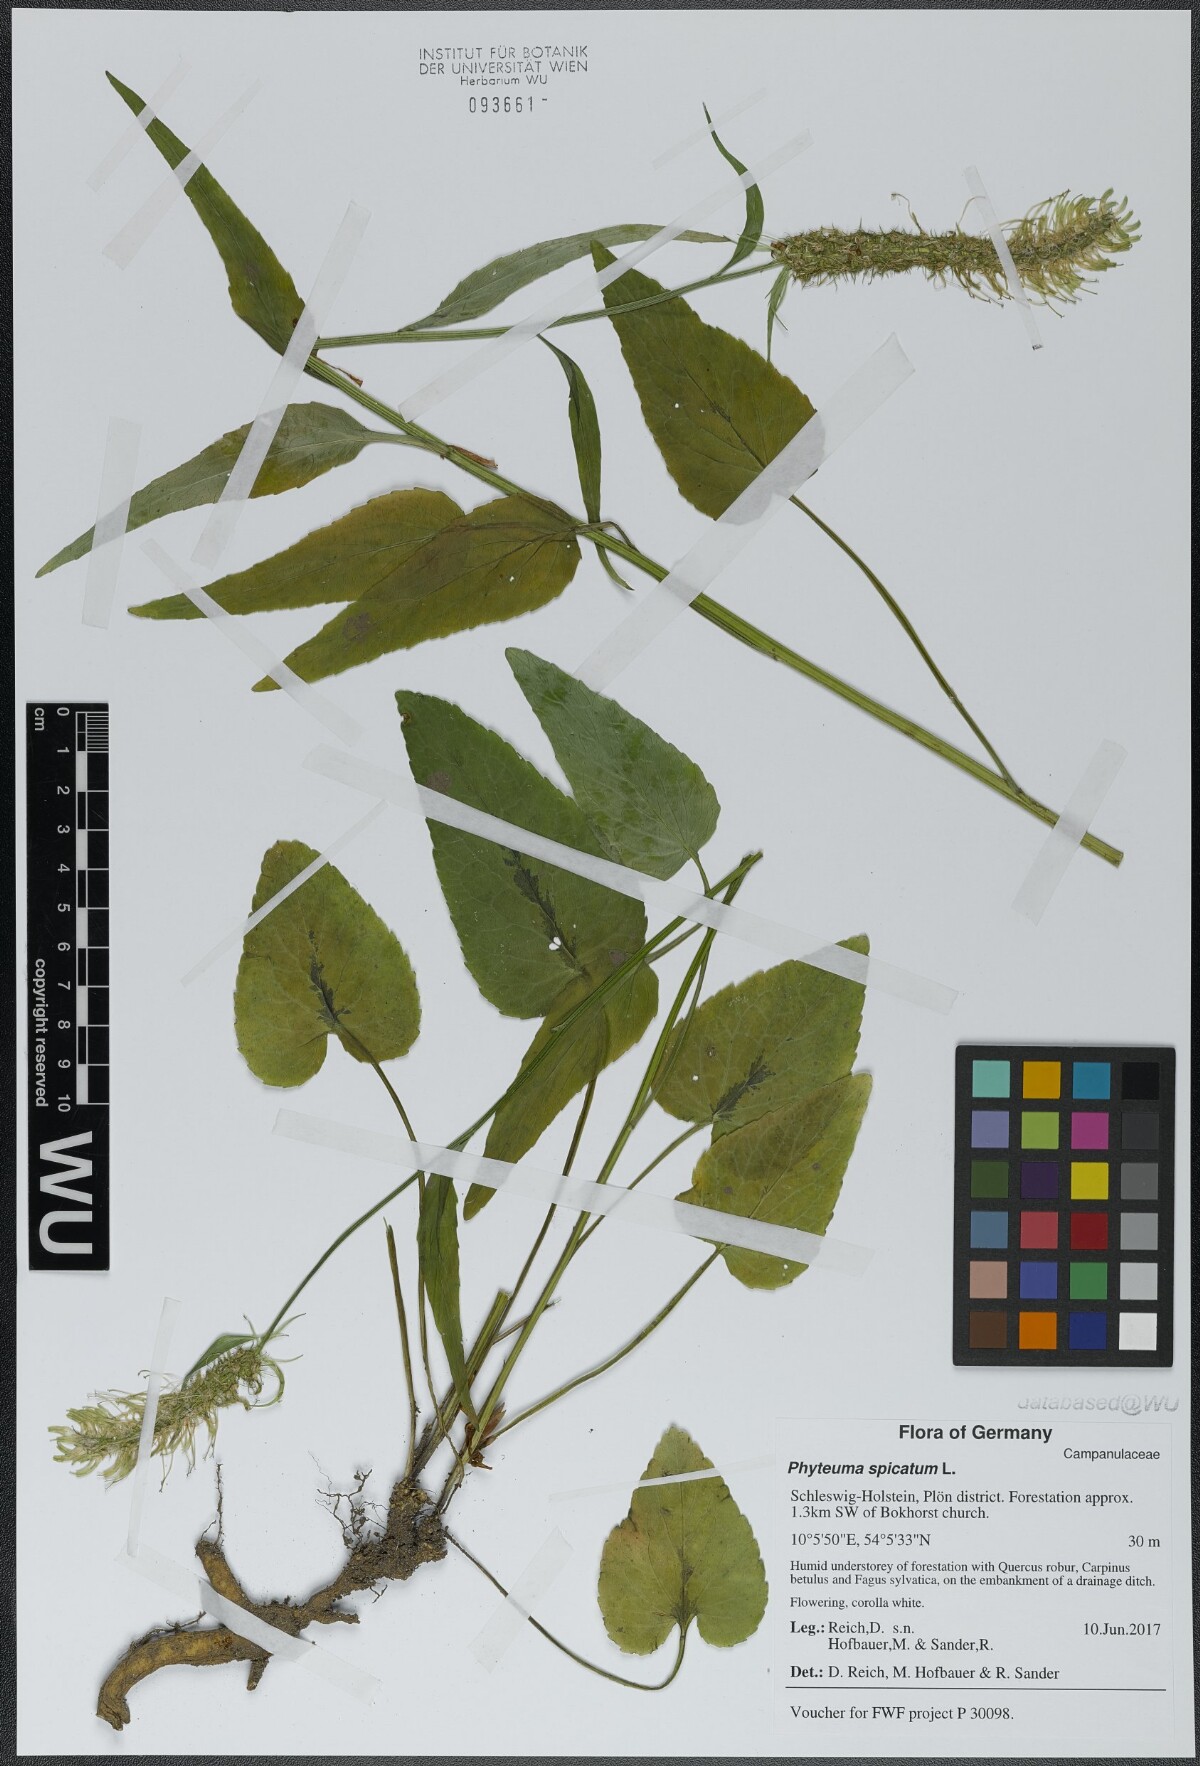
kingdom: Plantae
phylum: Tracheophyta
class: Magnoliopsida
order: Asterales
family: Campanulaceae
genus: Phyteuma
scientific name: Phyteuma spicatum
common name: Spiked rampion
